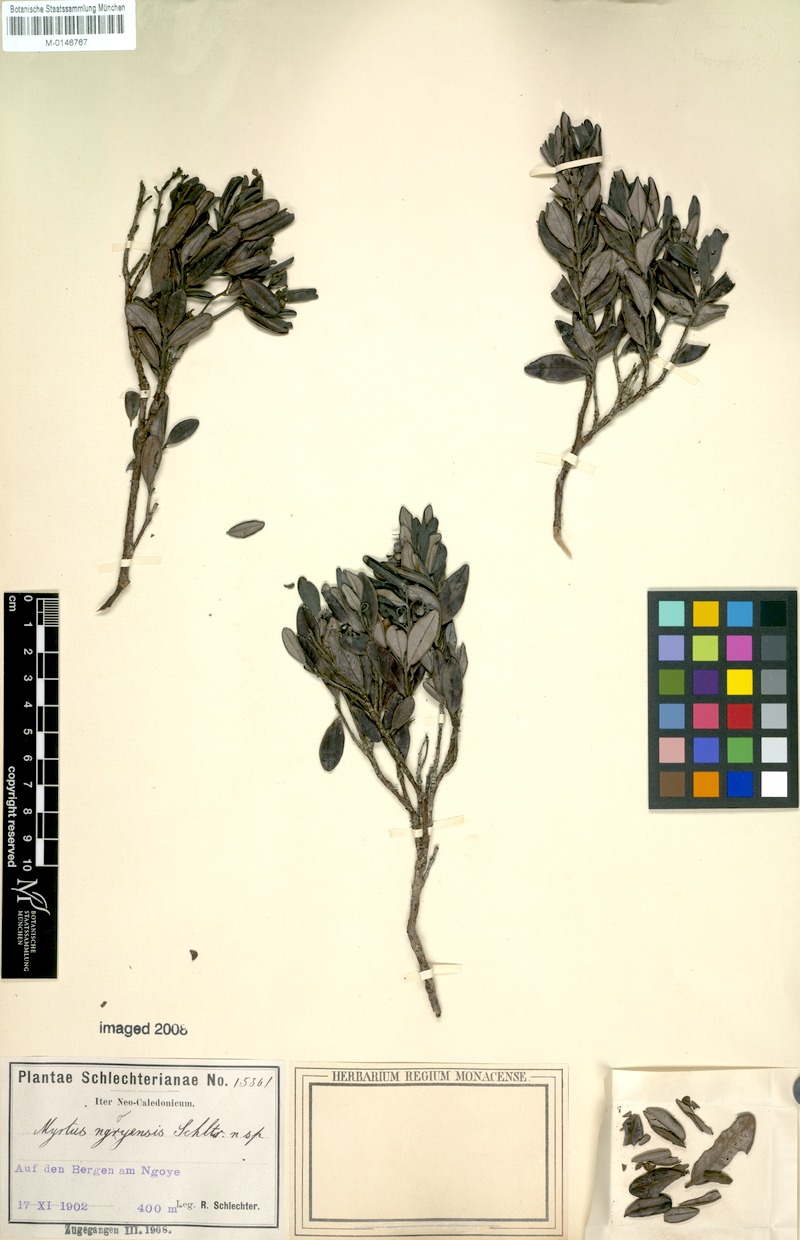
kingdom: Plantae
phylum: Tracheophyta
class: Magnoliopsida
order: Myrtales
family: Myrtaceae
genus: Uromyrtus
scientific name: Uromyrtus ngoyensis
